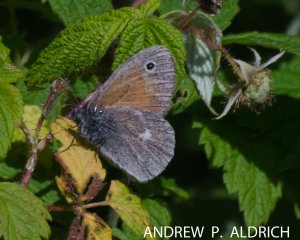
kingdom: Animalia
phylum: Arthropoda
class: Insecta
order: Lepidoptera
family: Nymphalidae
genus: Coenonympha
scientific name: Coenonympha tullia
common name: Large Heath
